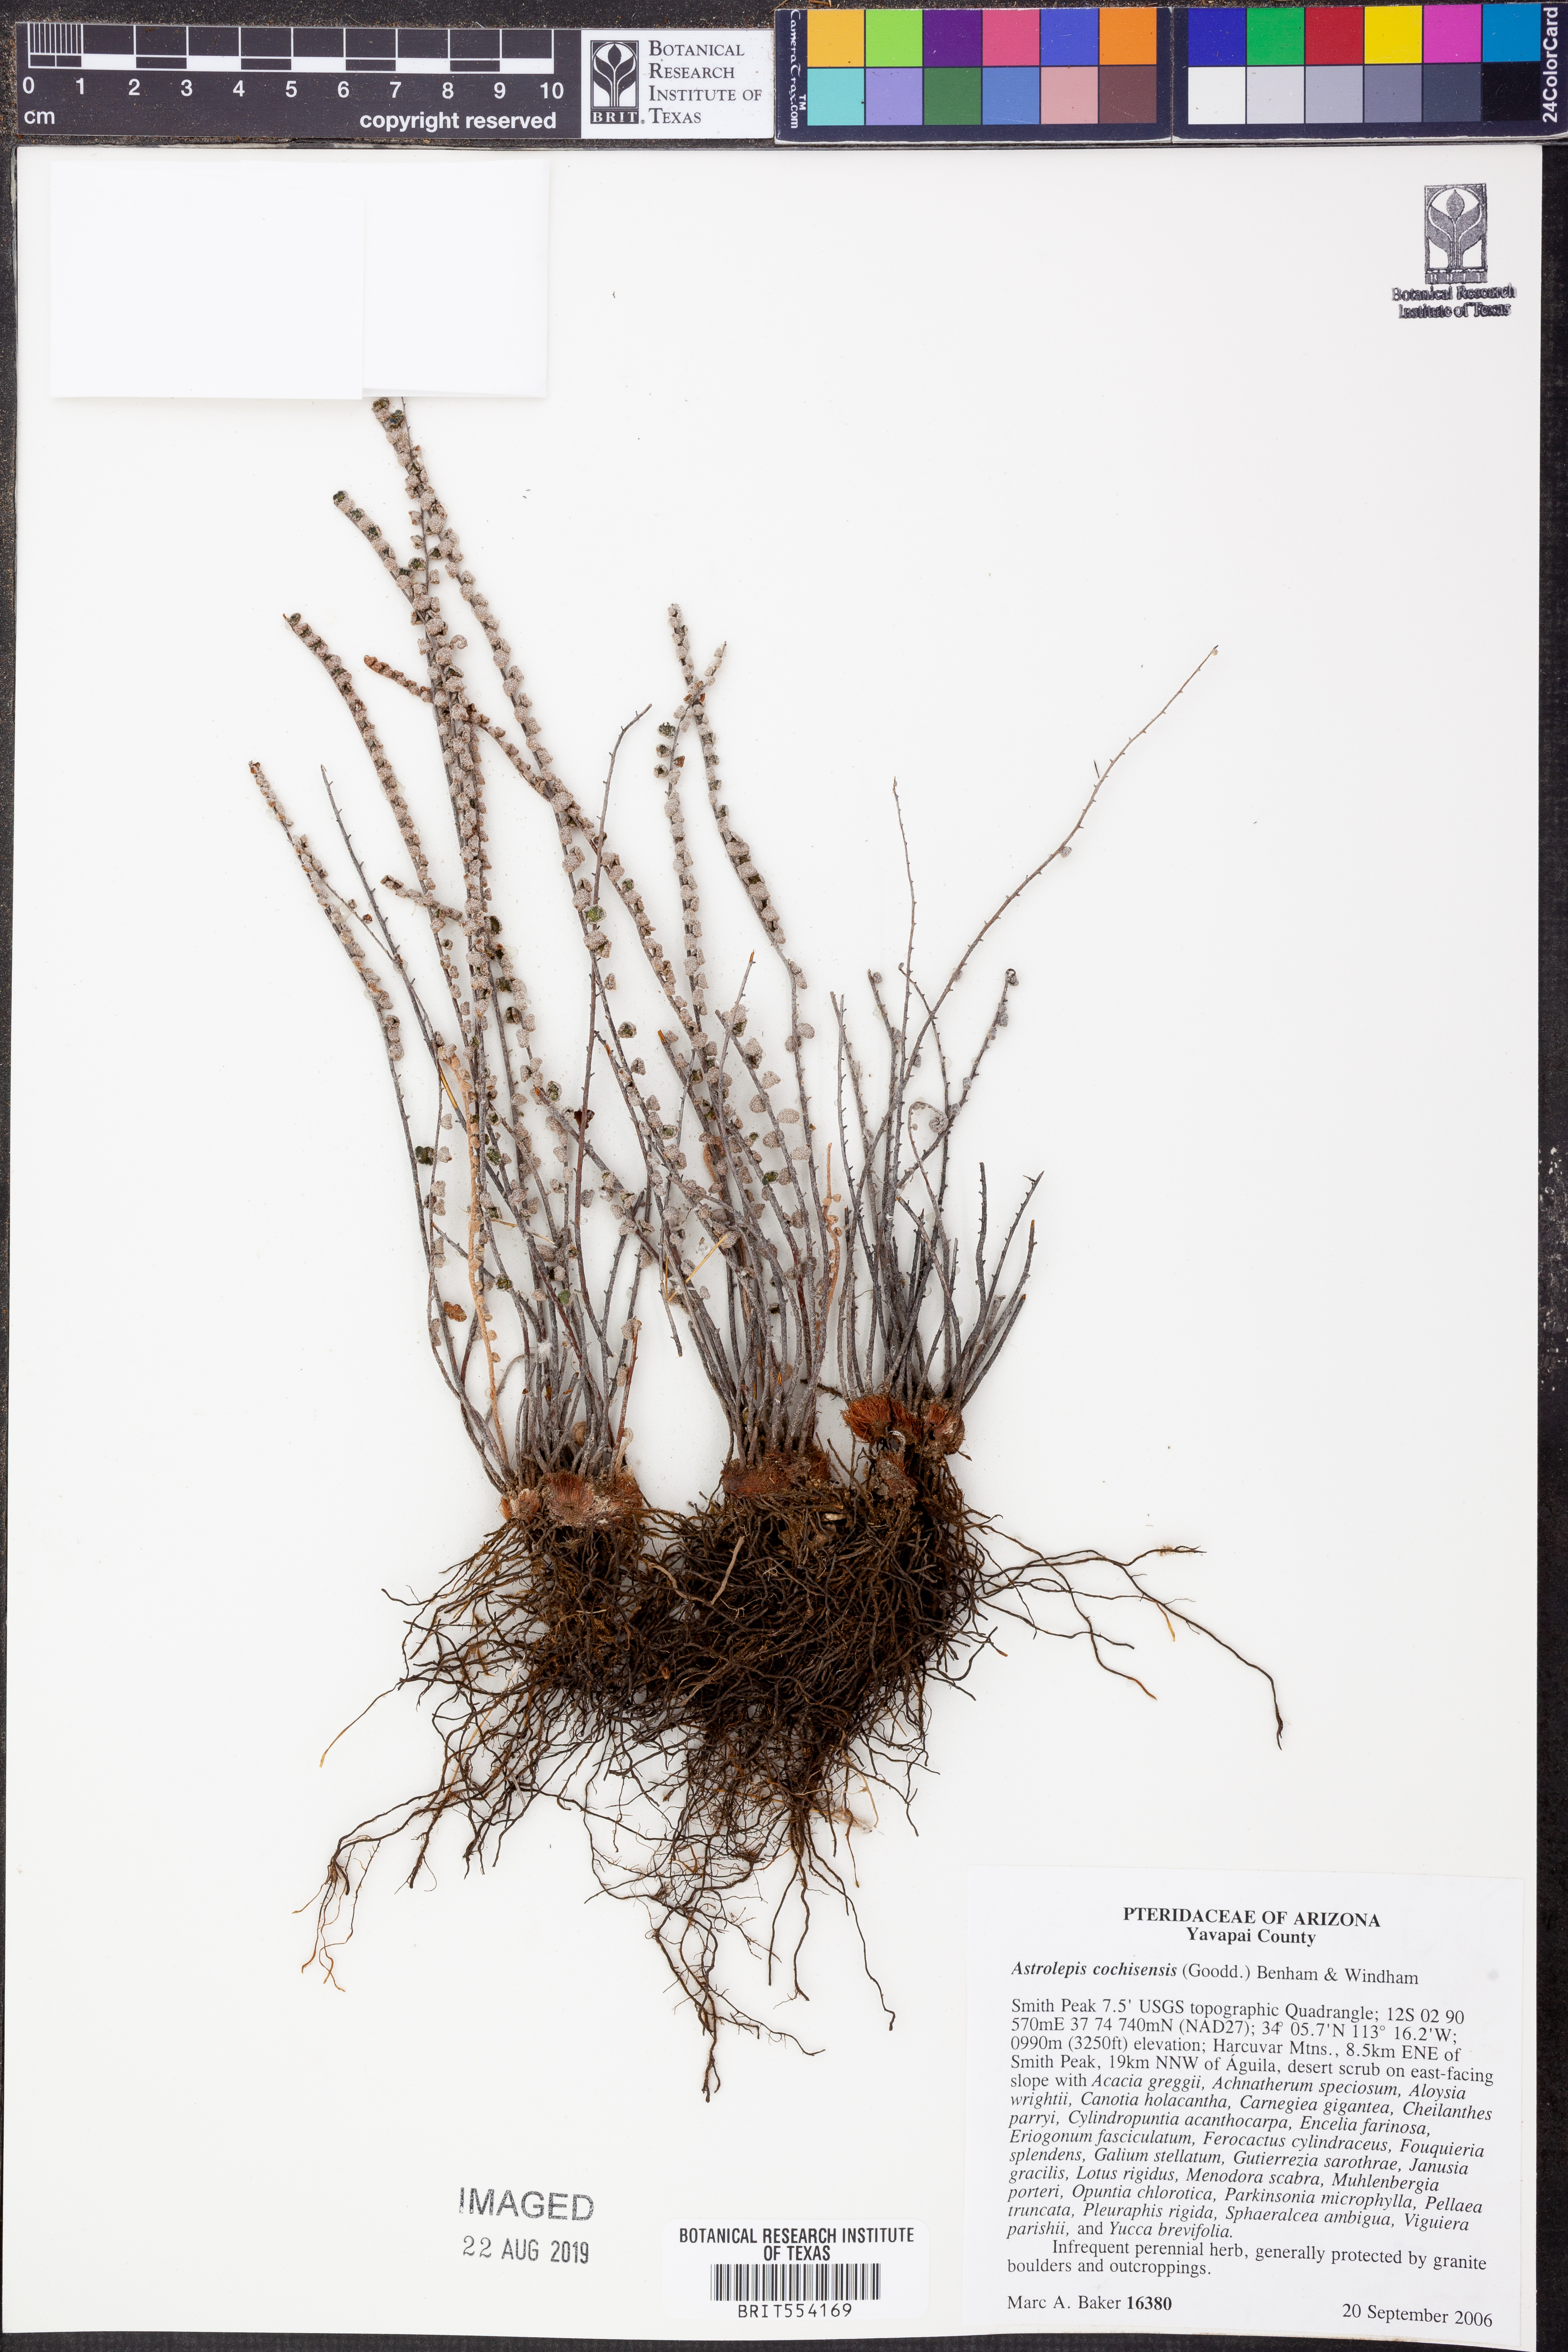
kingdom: Plantae
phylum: Tracheophyta
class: Polypodiopsida
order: Polypodiales
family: Pteridaceae
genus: Astrolepis
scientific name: Astrolepis cochisensis
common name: Scaly cloak fern
